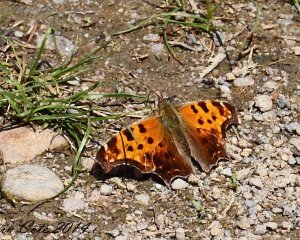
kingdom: Animalia
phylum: Arthropoda
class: Insecta
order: Lepidoptera
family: Nymphalidae
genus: Polygonia
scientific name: Polygonia comma
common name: Eastern Comma
